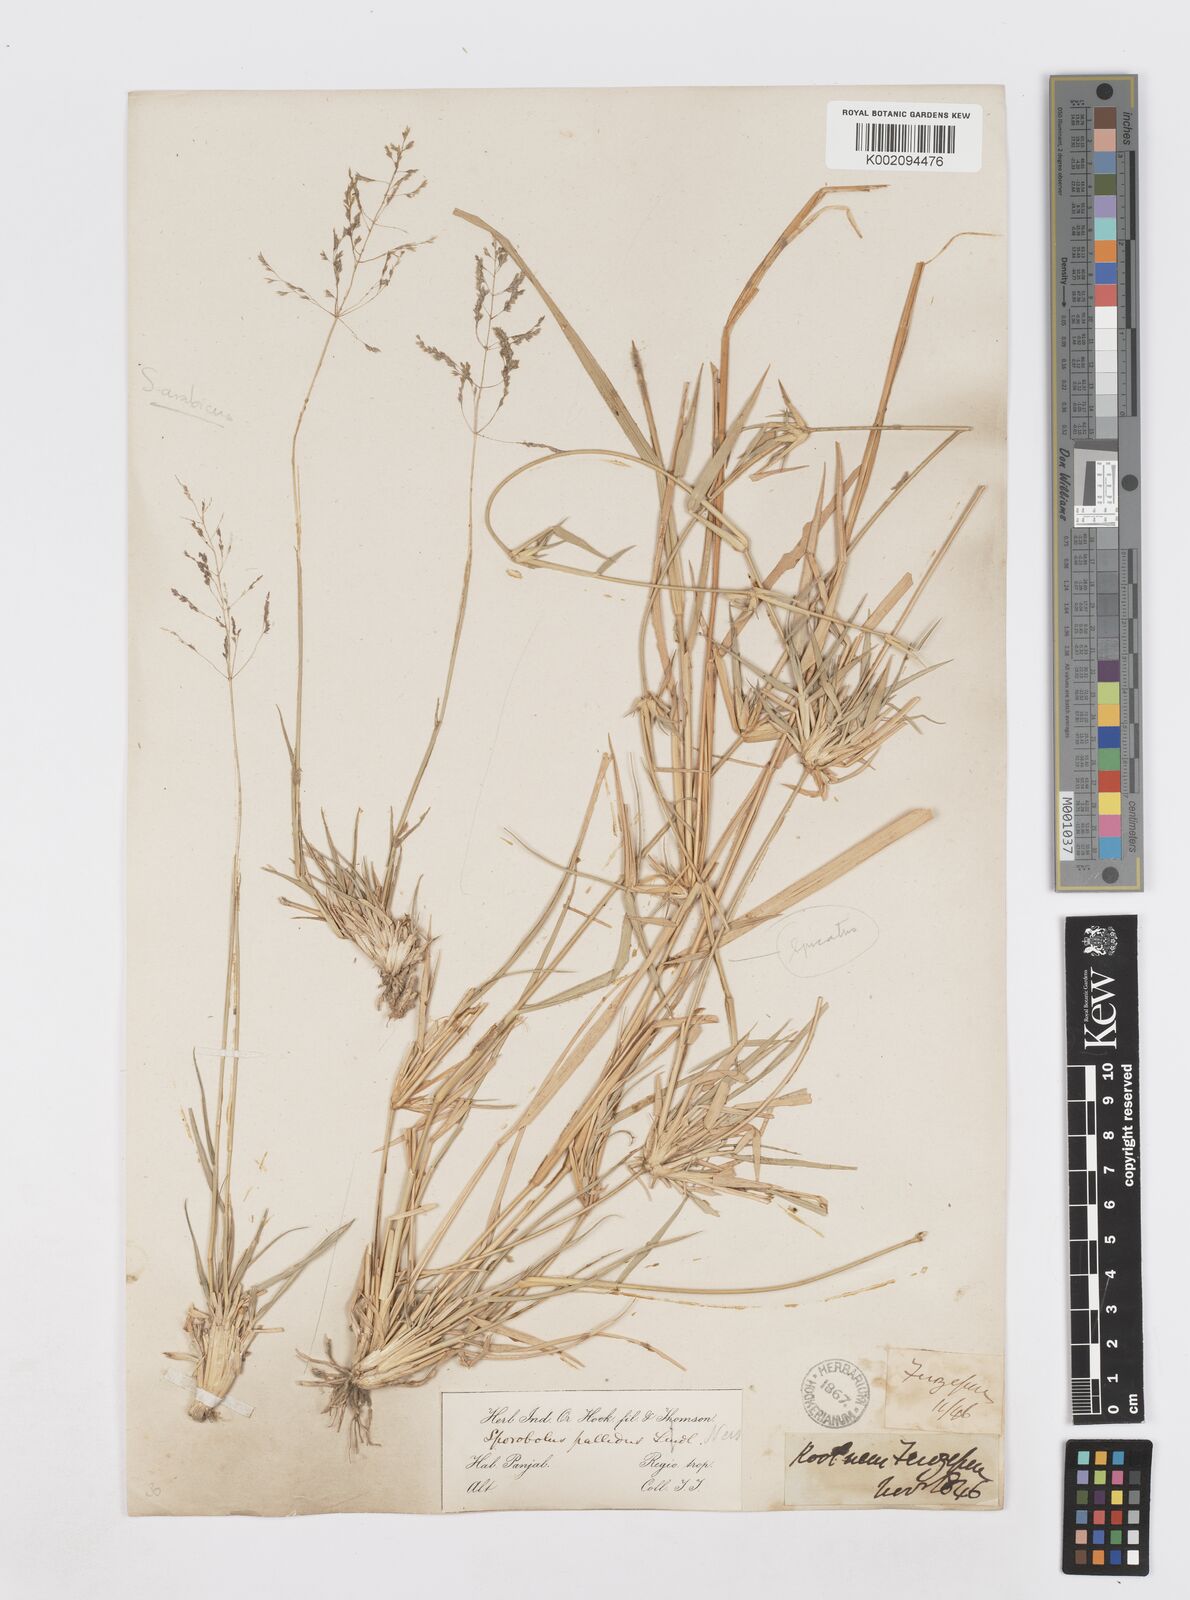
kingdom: Plantae
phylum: Tracheophyta
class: Liliopsida
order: Poales
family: Poaceae
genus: Sporobolus
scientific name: Sporobolus ioclados
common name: Pan dropseed
